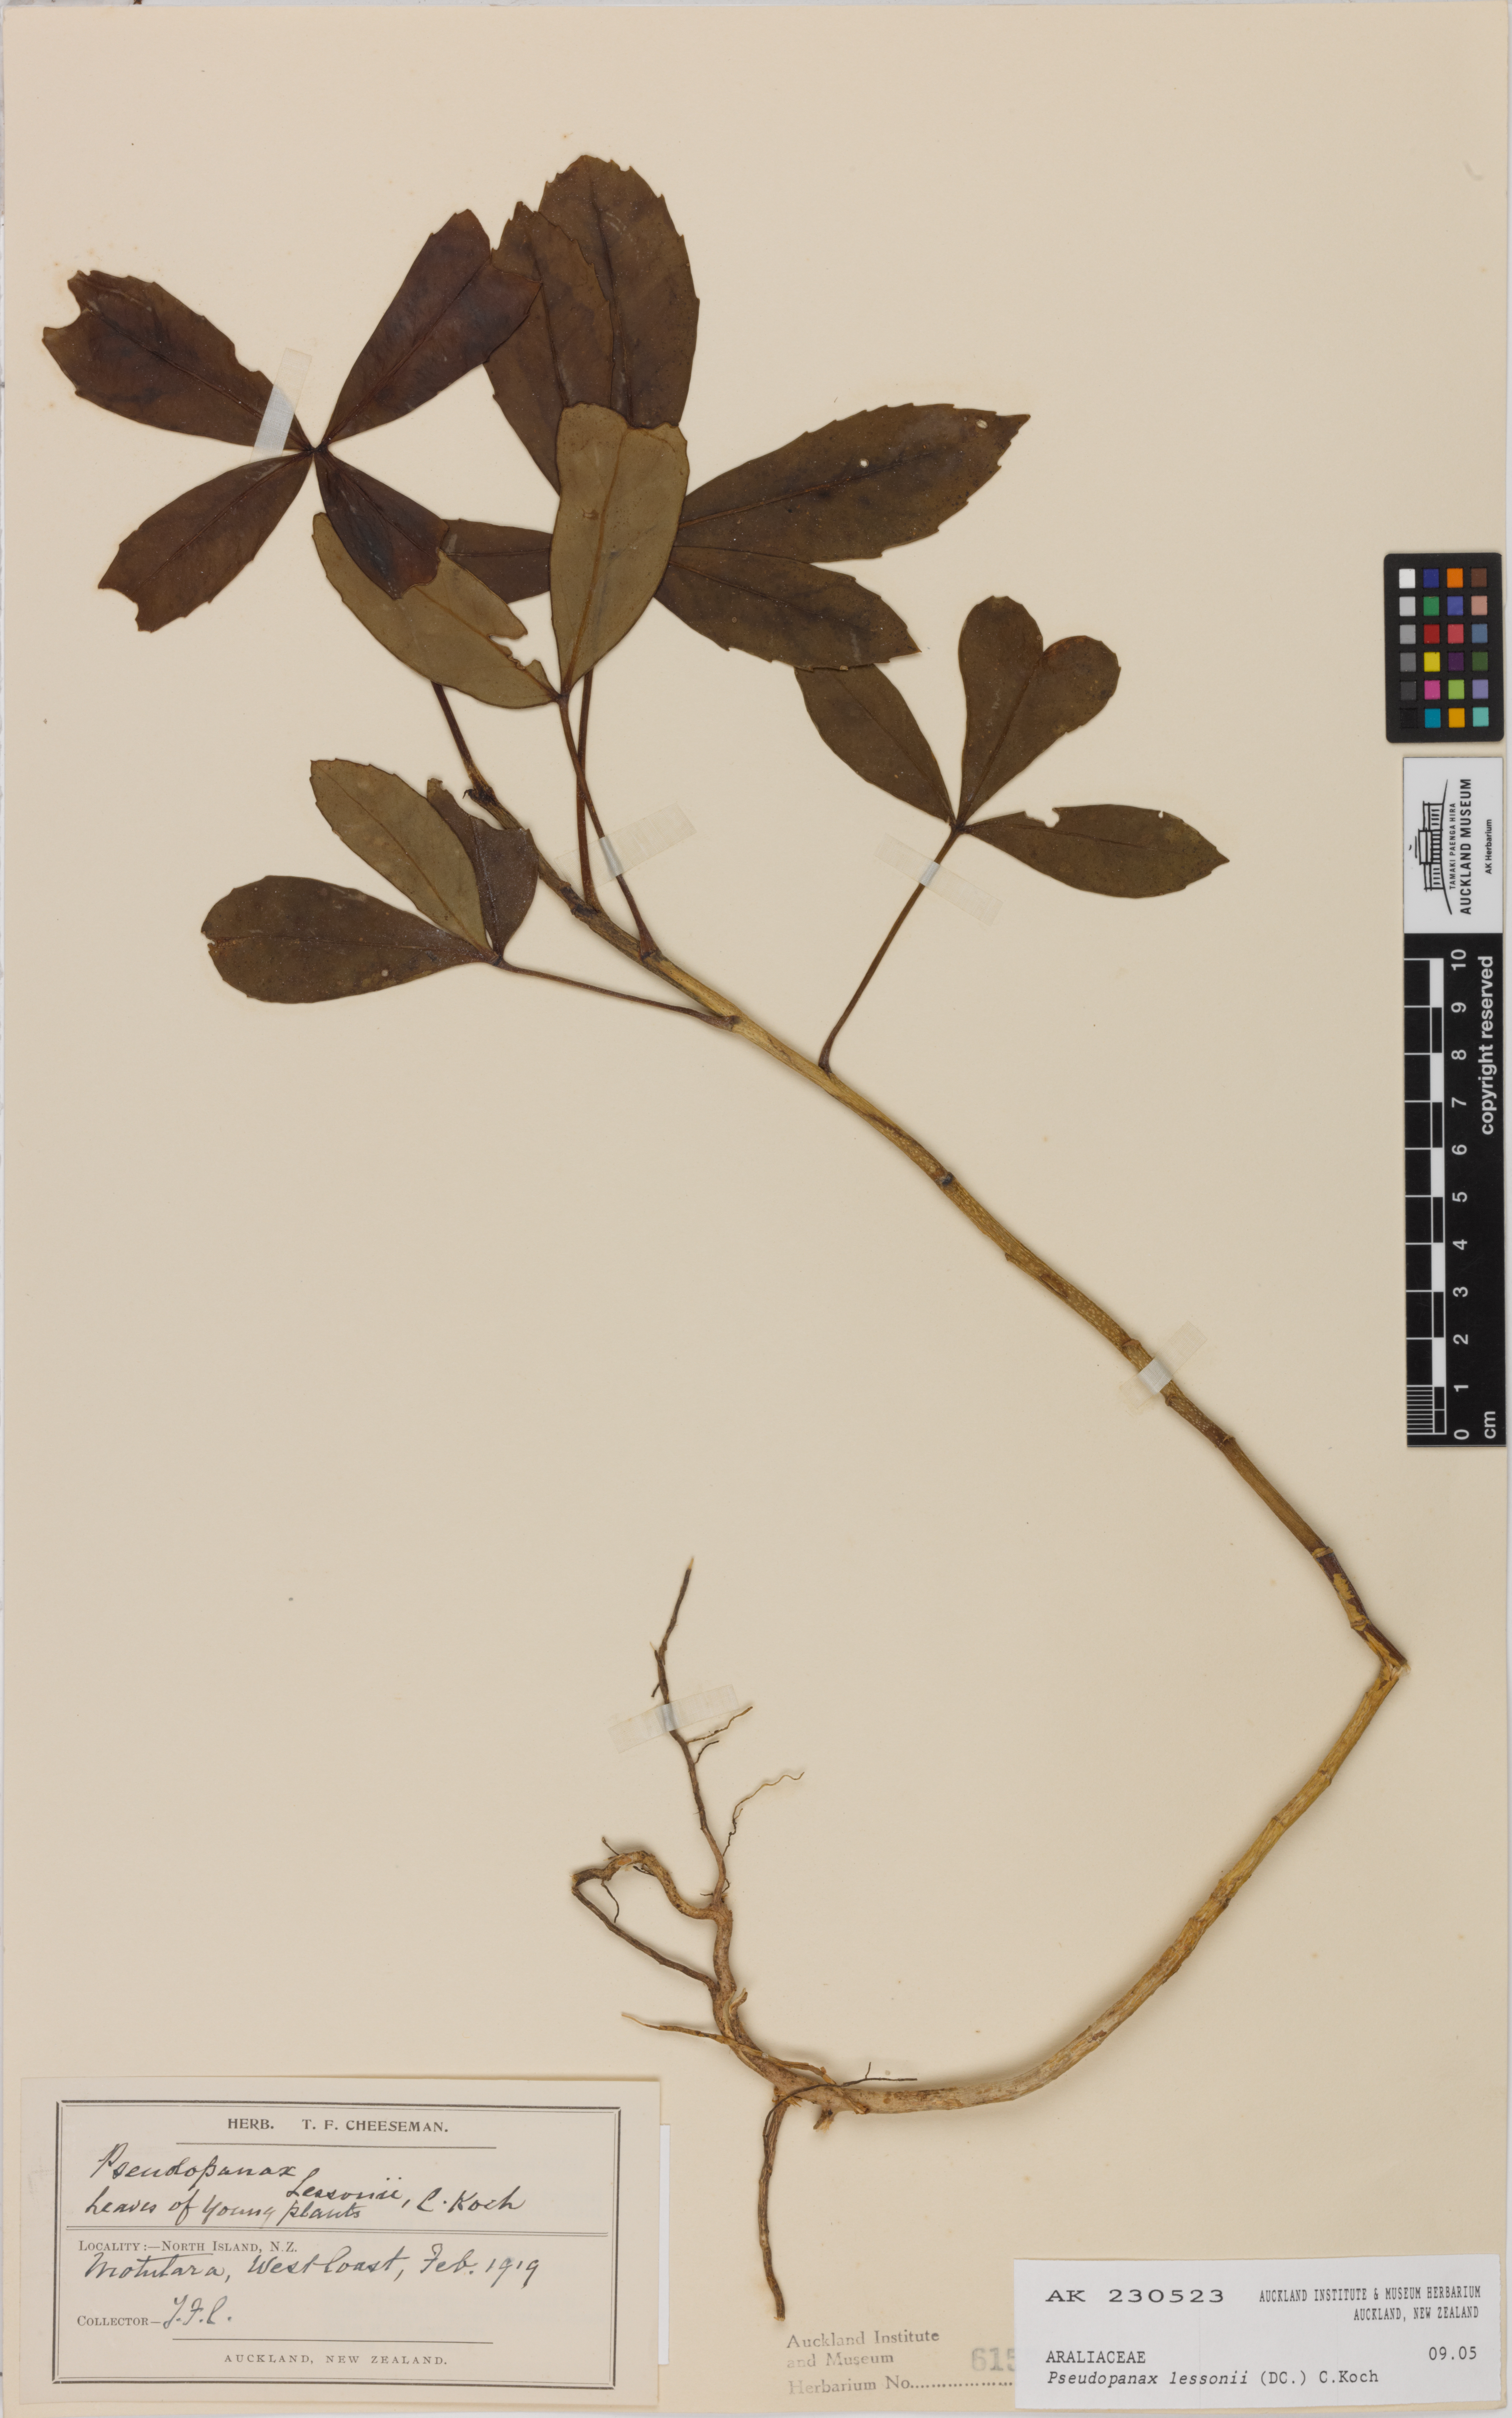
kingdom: Plantae
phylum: Tracheophyta
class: Magnoliopsida
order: Apiales
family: Araliaceae
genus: Pseudopanax
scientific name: Pseudopanax lessonii
